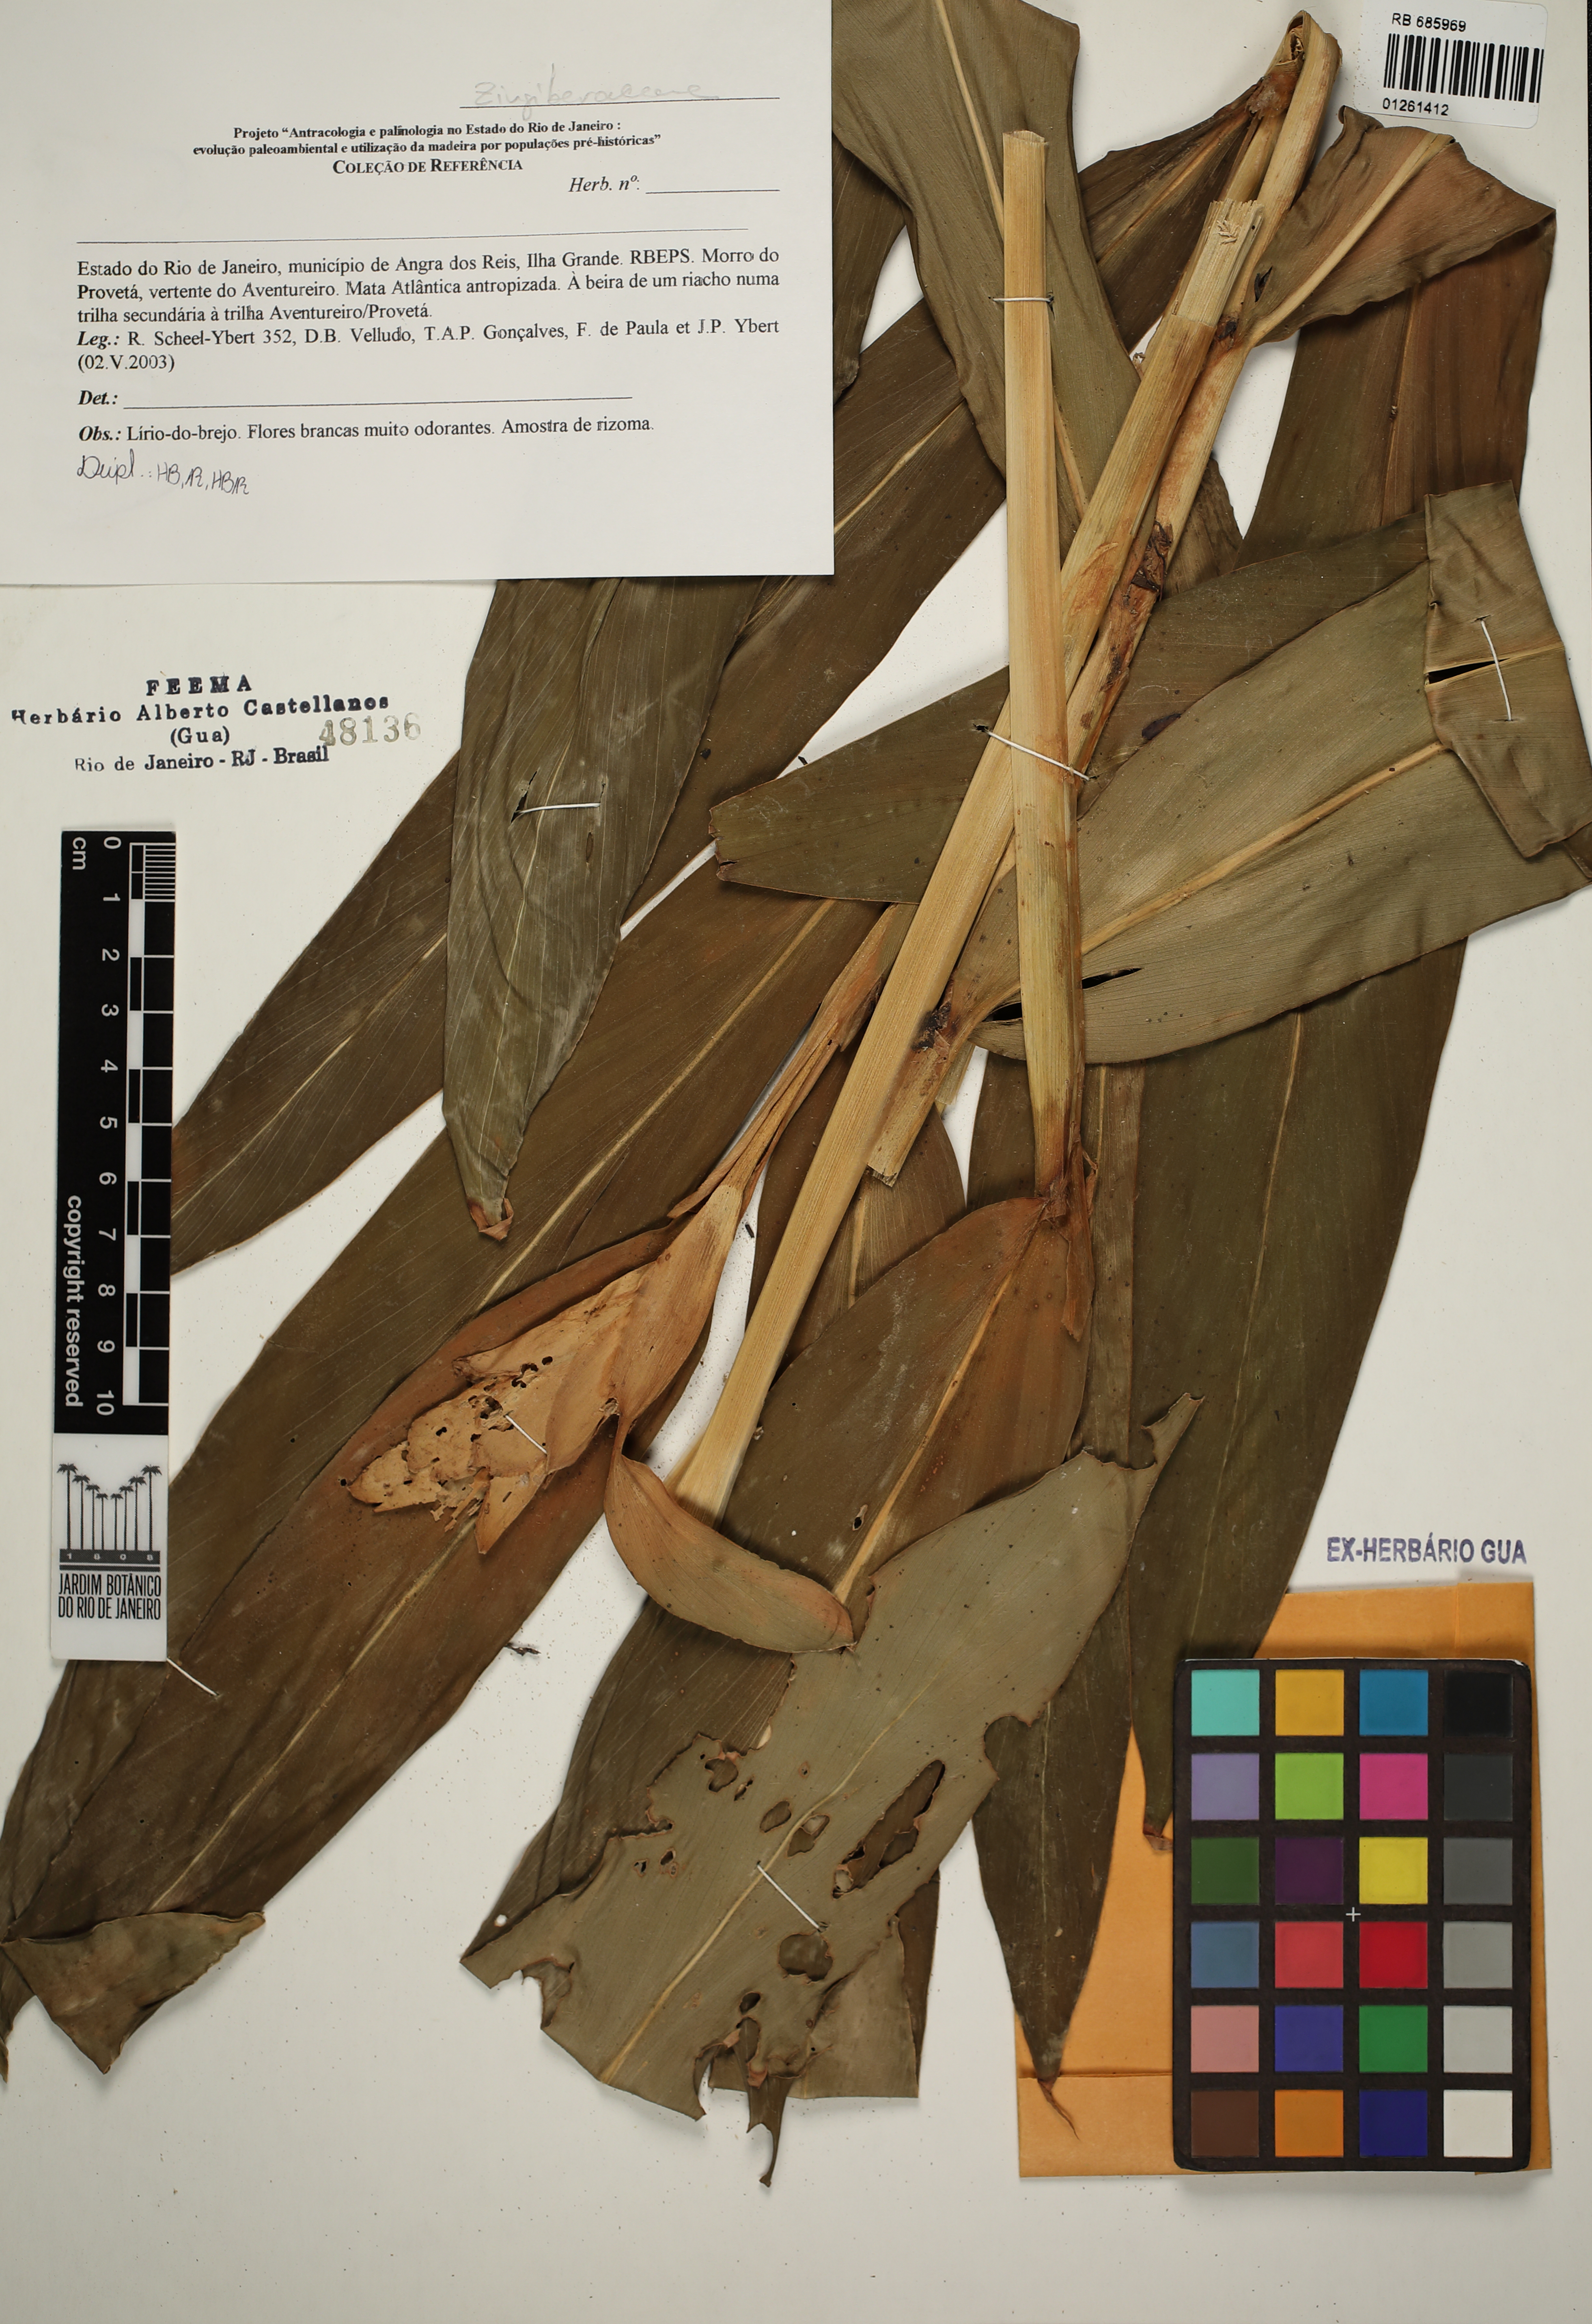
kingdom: Plantae
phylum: Tracheophyta
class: Liliopsida
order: Zingiberales
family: Zingiberaceae
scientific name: Zingiberaceae
